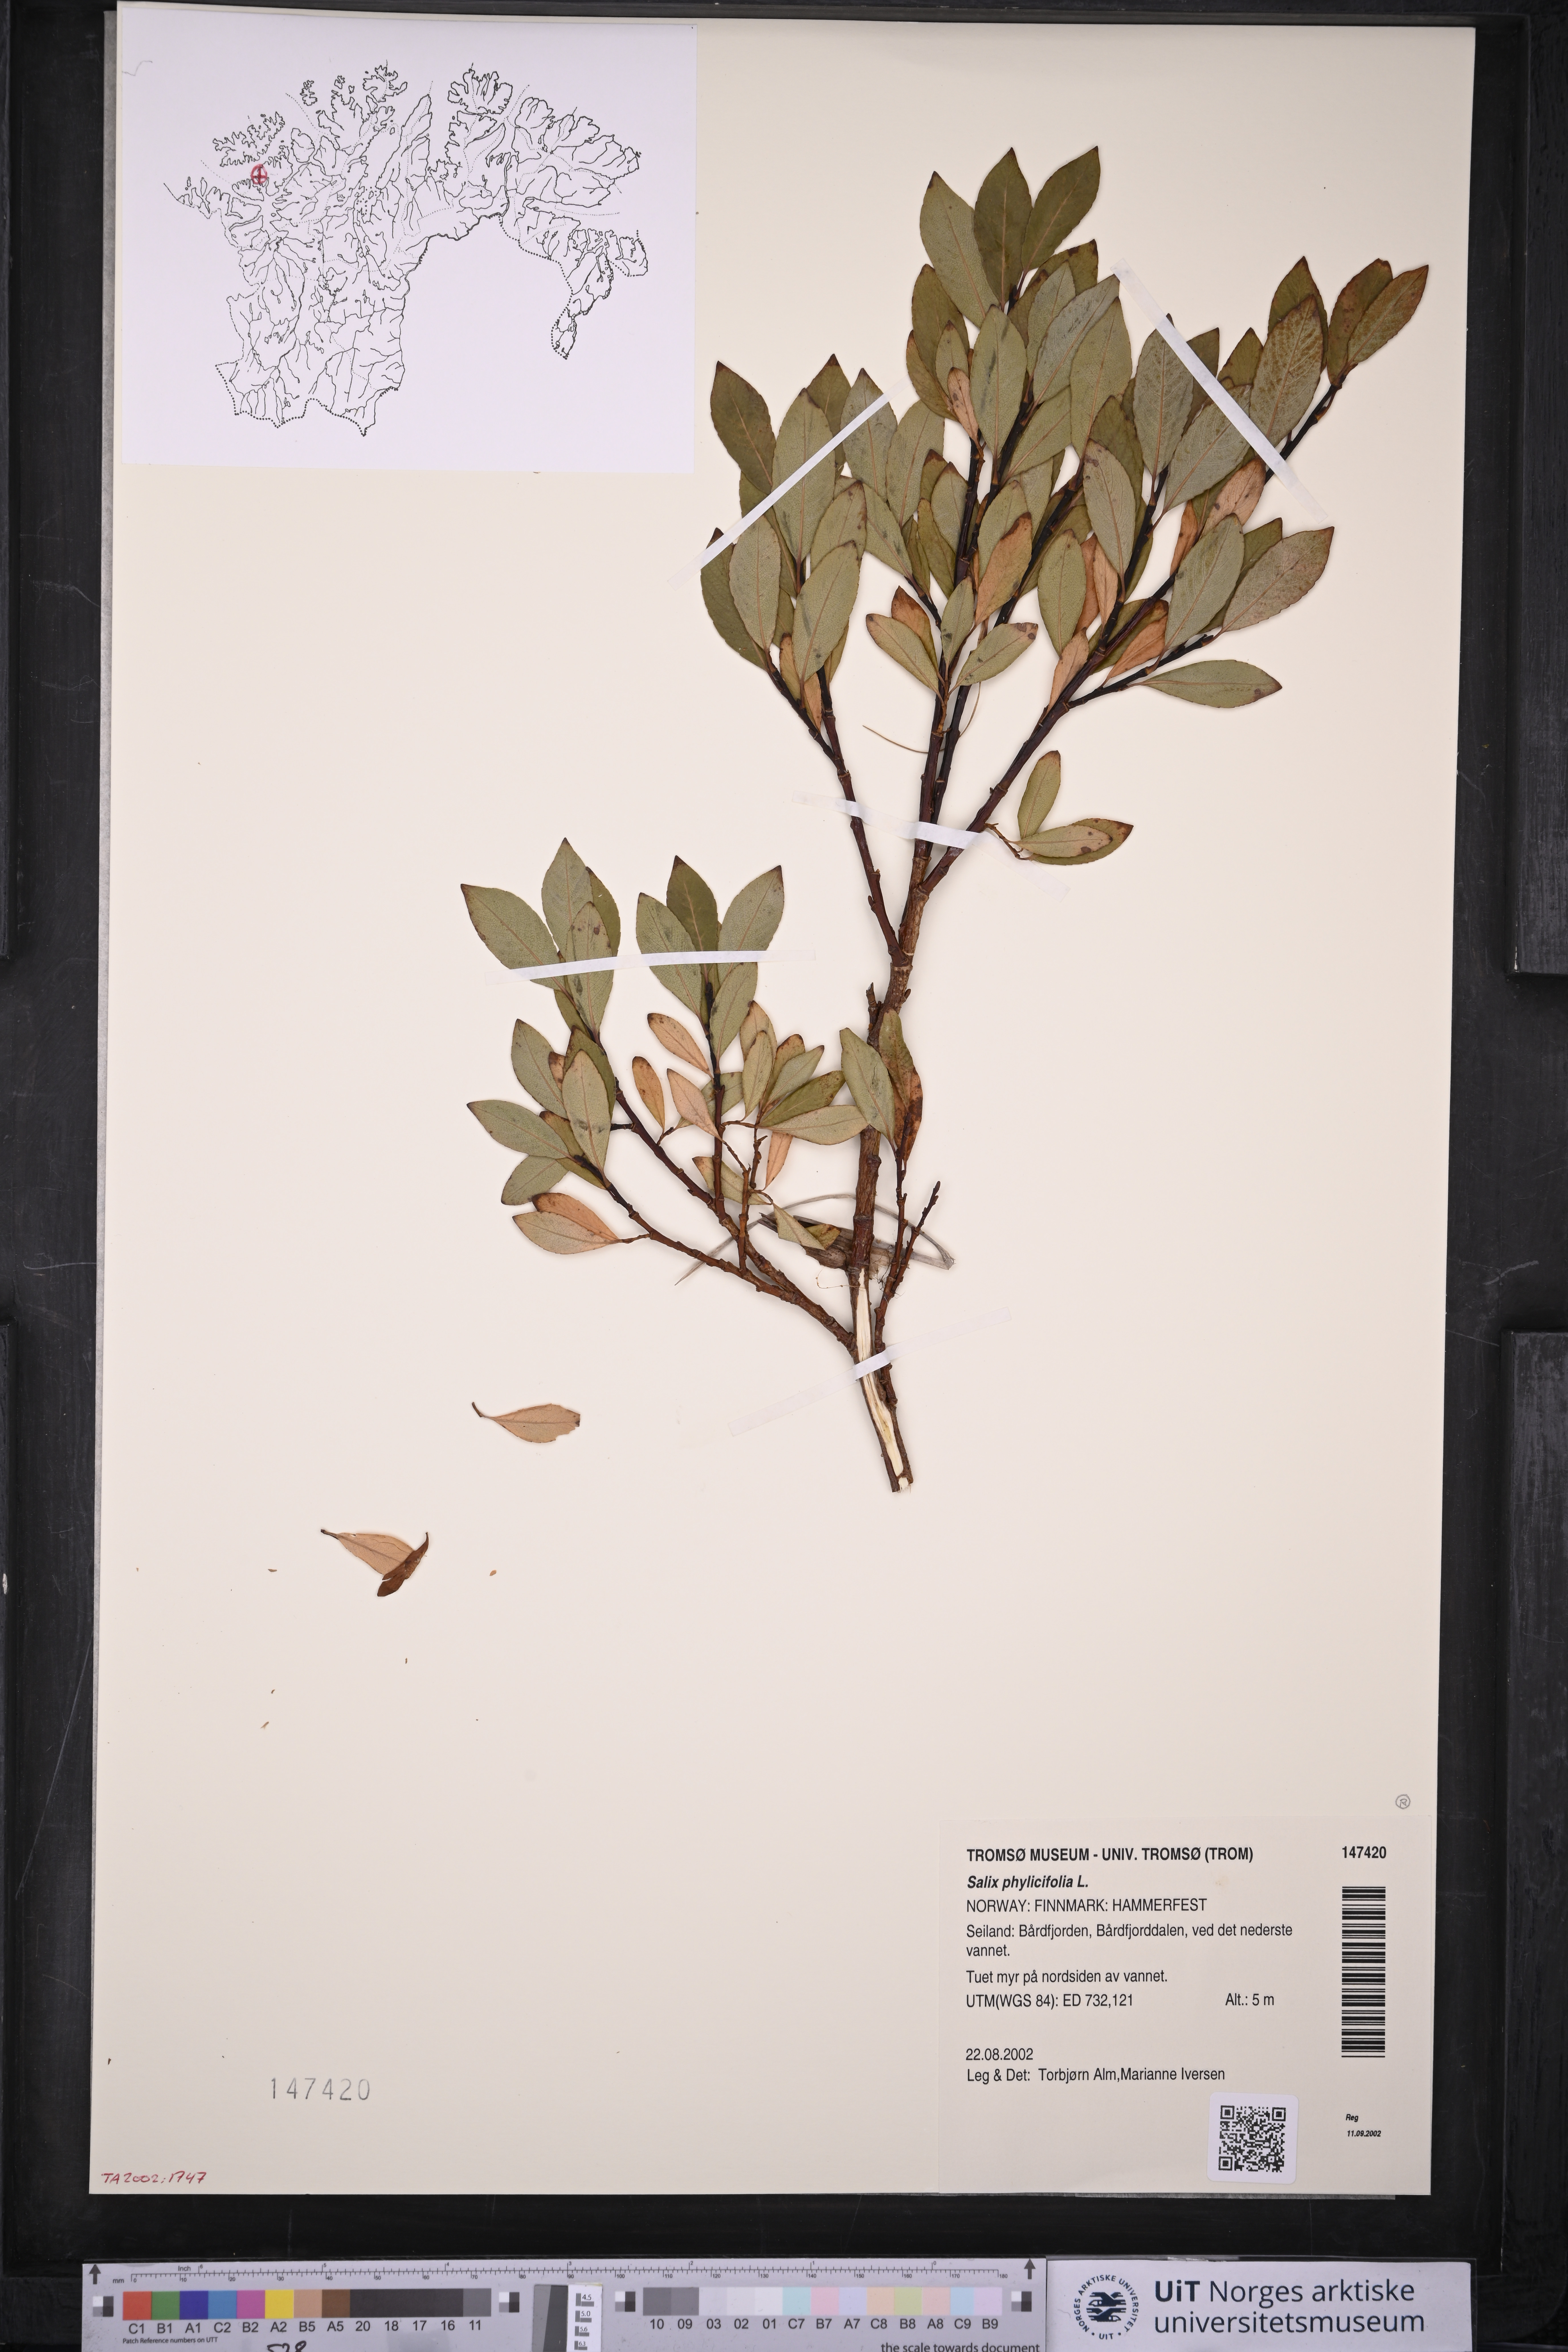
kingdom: Plantae
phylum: Tracheophyta
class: Magnoliopsida
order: Malpighiales
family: Salicaceae
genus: Salix
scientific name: Salix phylicifolia
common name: Tea-leaved willow
